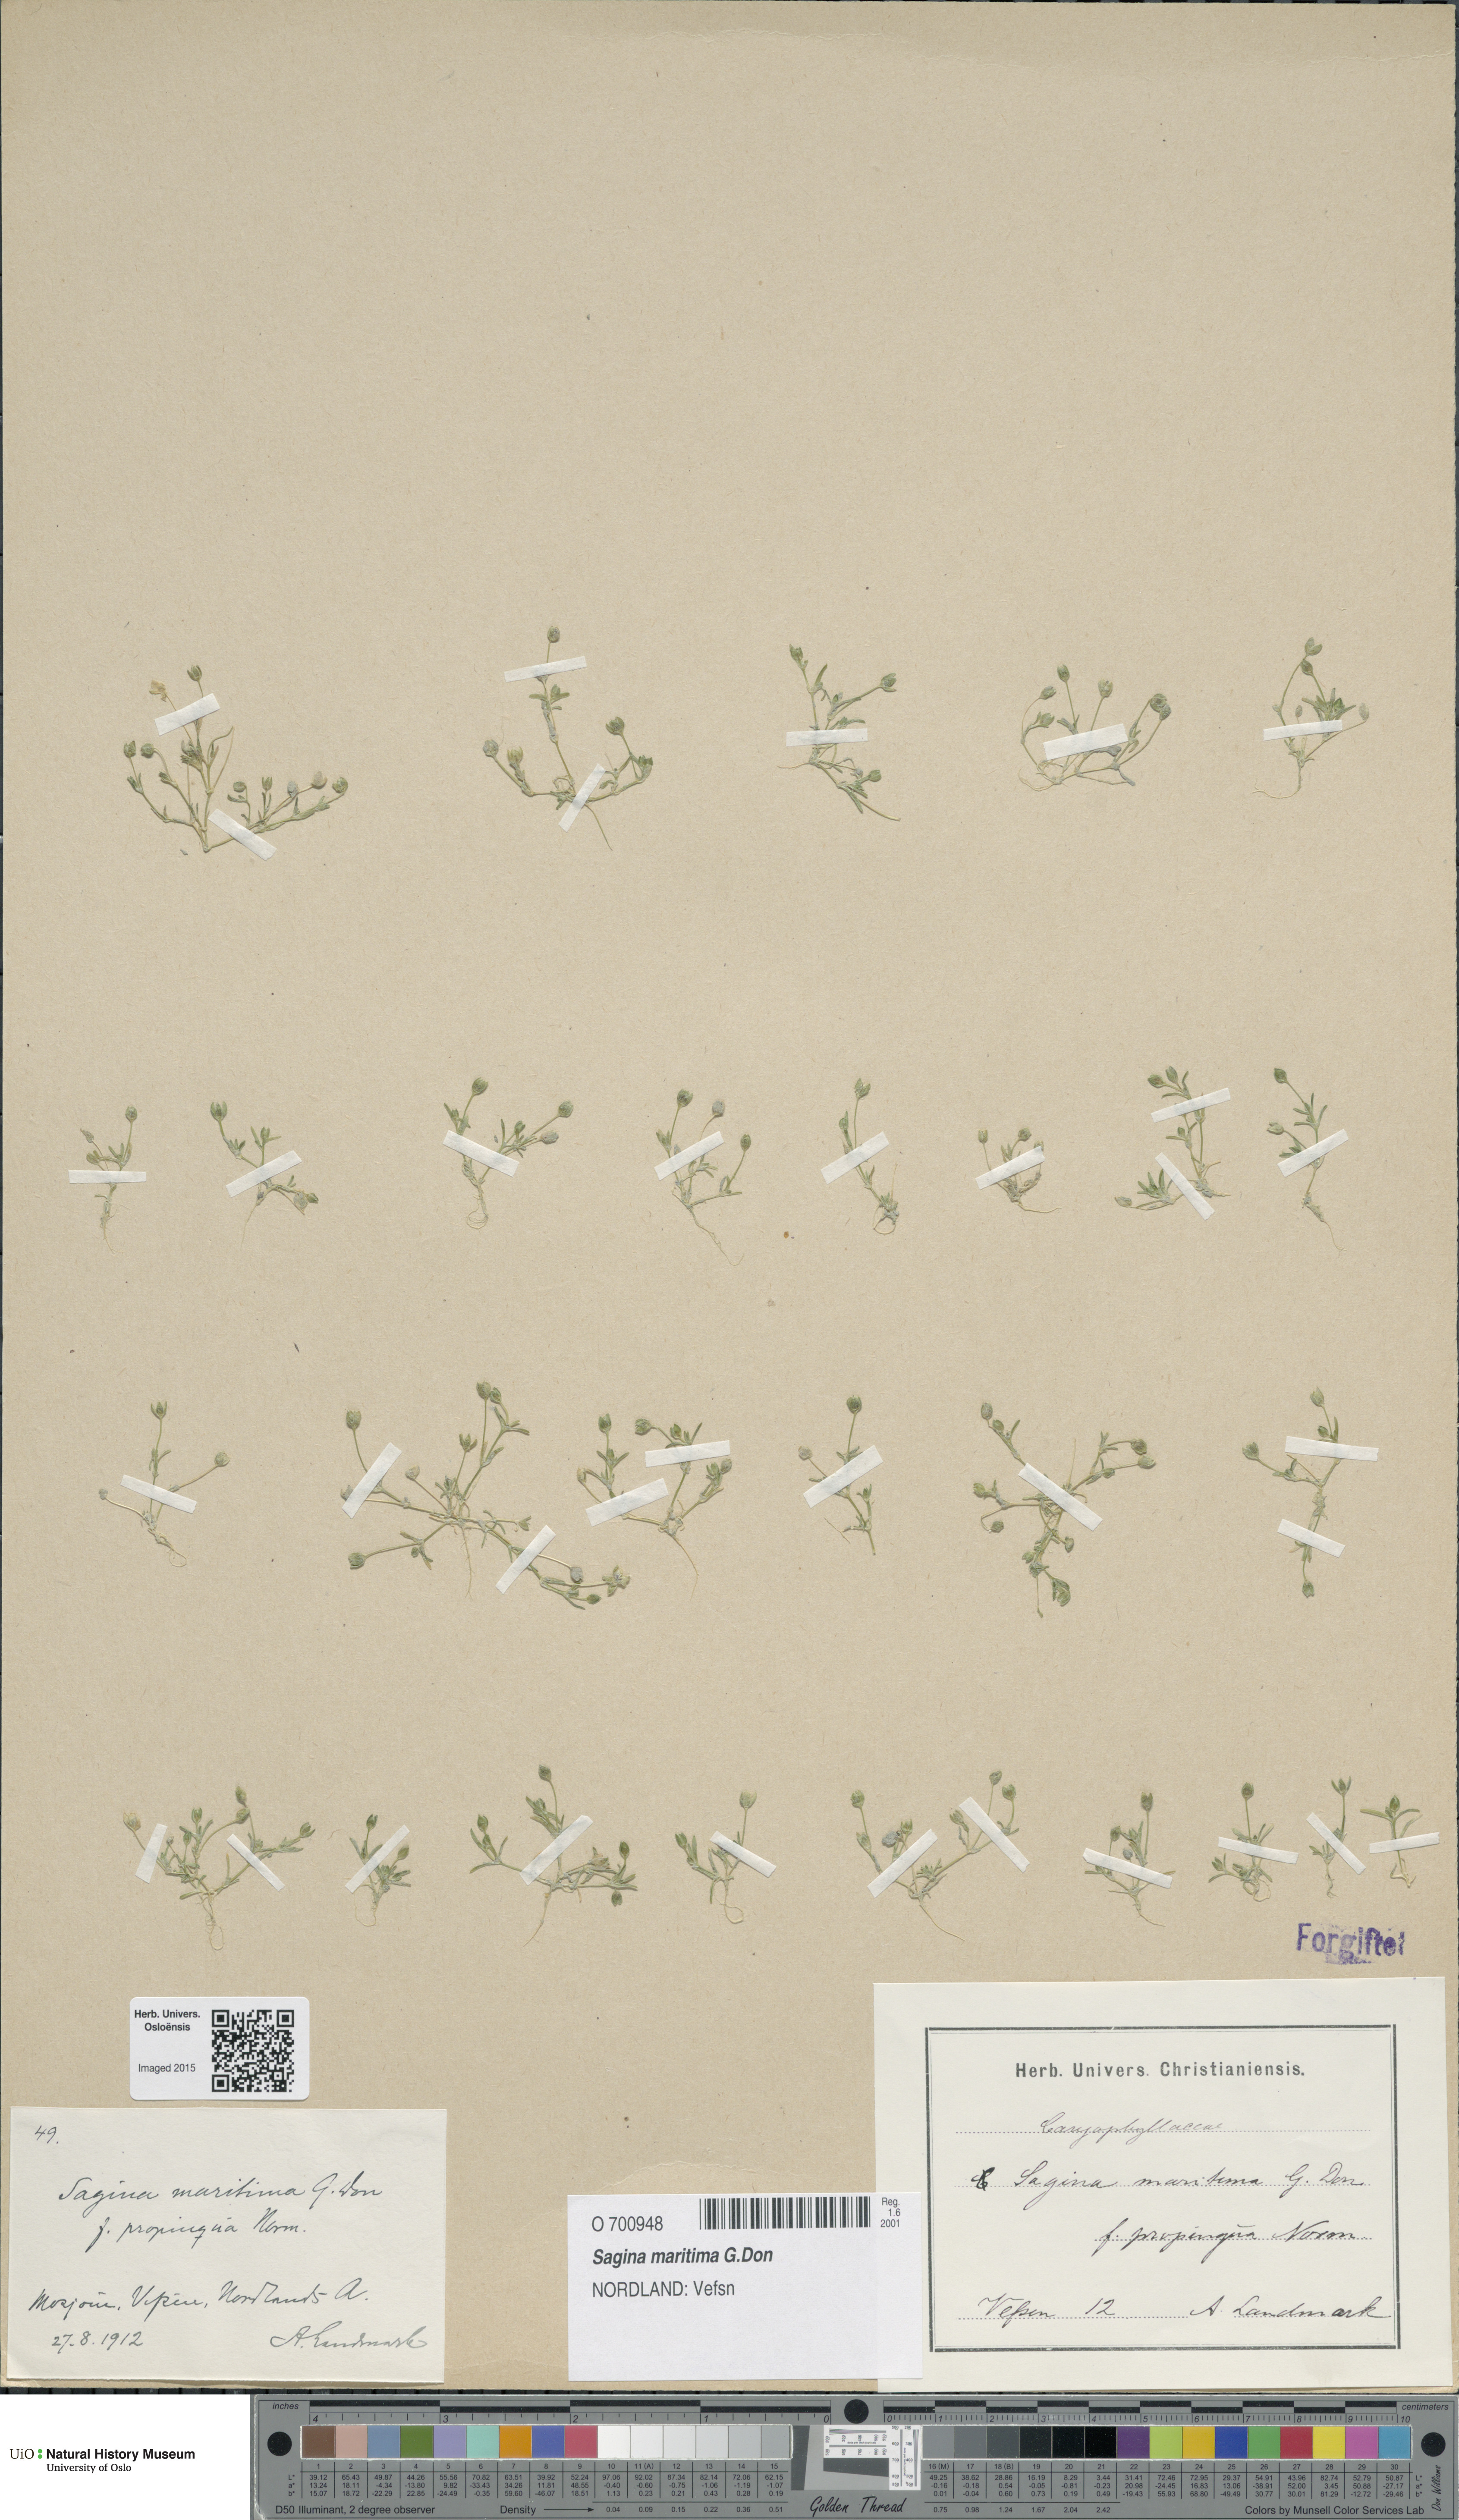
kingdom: Plantae
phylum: Tracheophyta
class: Magnoliopsida
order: Caryophyllales
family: Caryophyllaceae
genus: Sagina
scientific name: Sagina maritima
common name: Sea pearlwort
